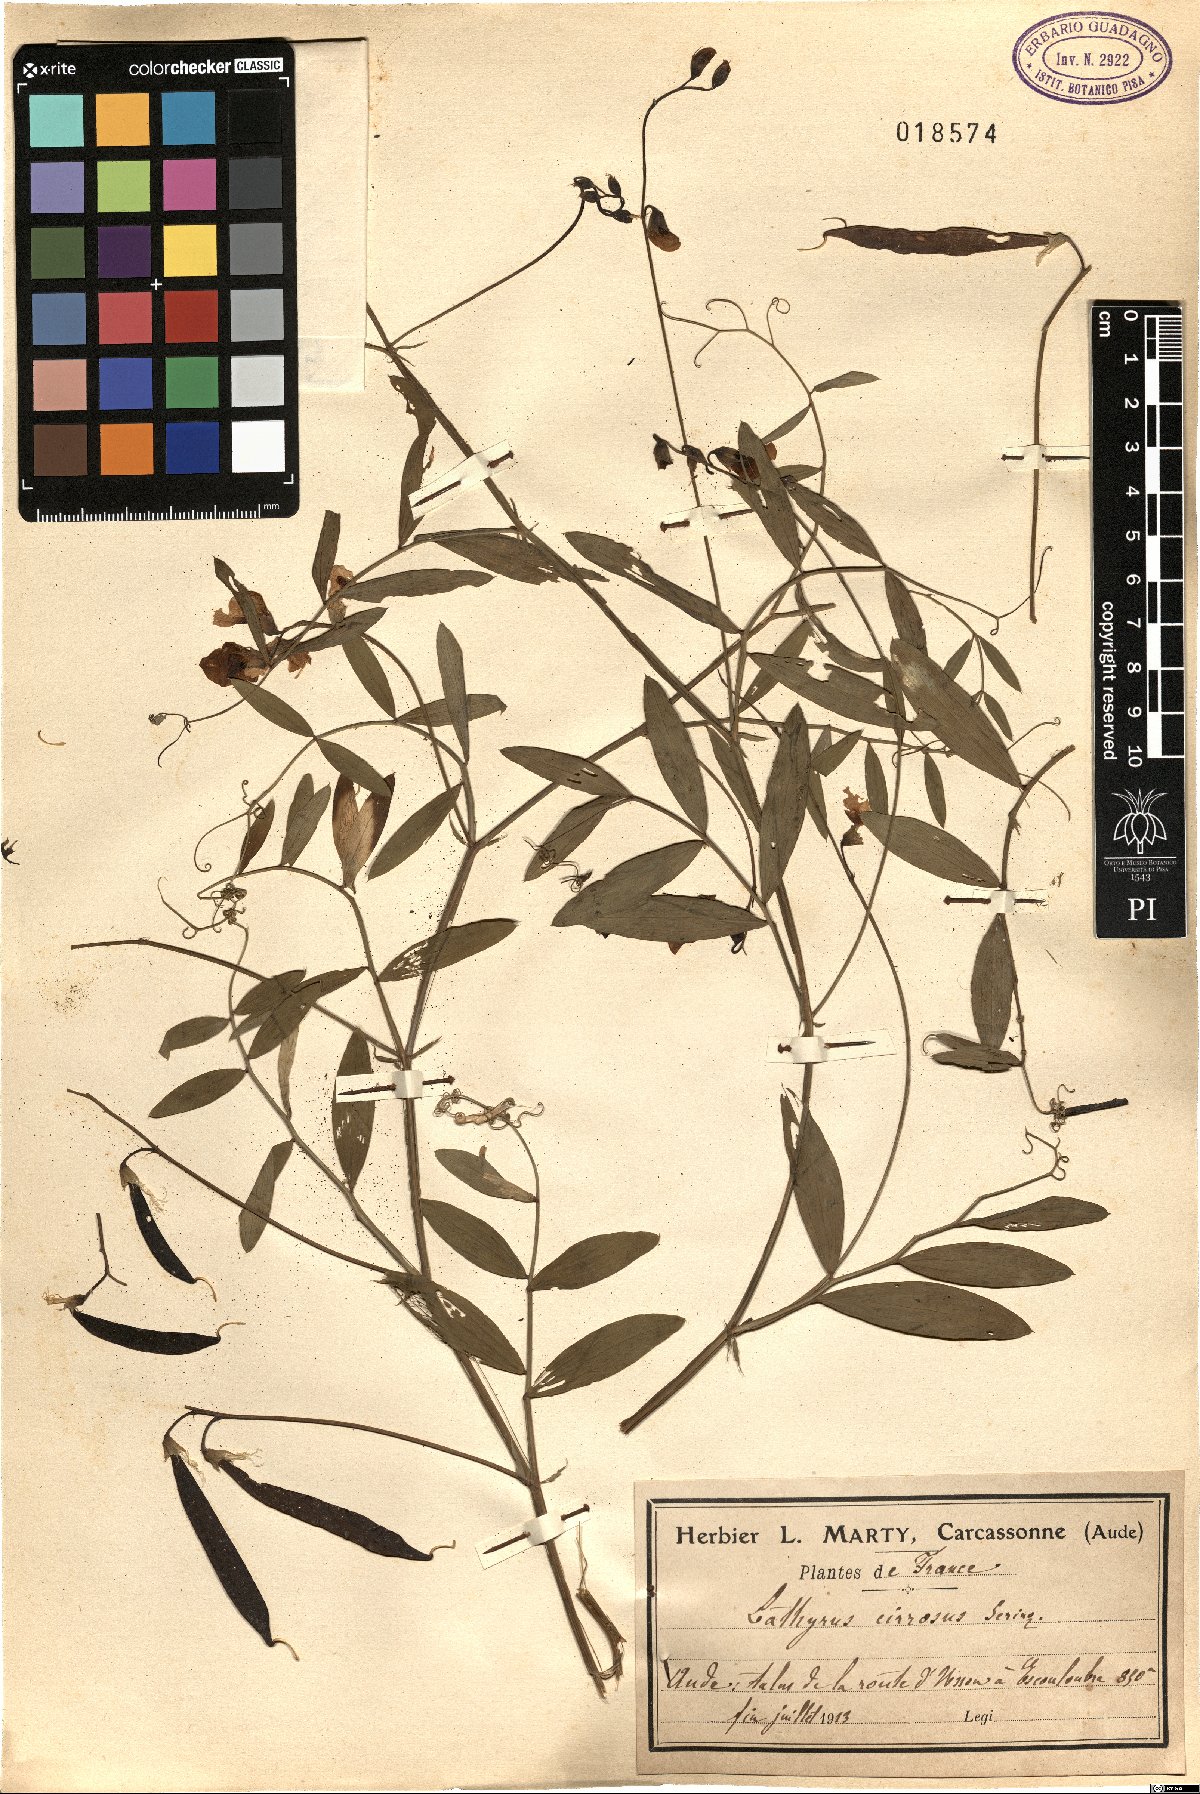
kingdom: Plantae
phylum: Tracheophyta
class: Magnoliopsida
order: Fabales
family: Fabaceae
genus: Lathyrus
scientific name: Lathyrus cirrhosus
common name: Cirrhose vetch
